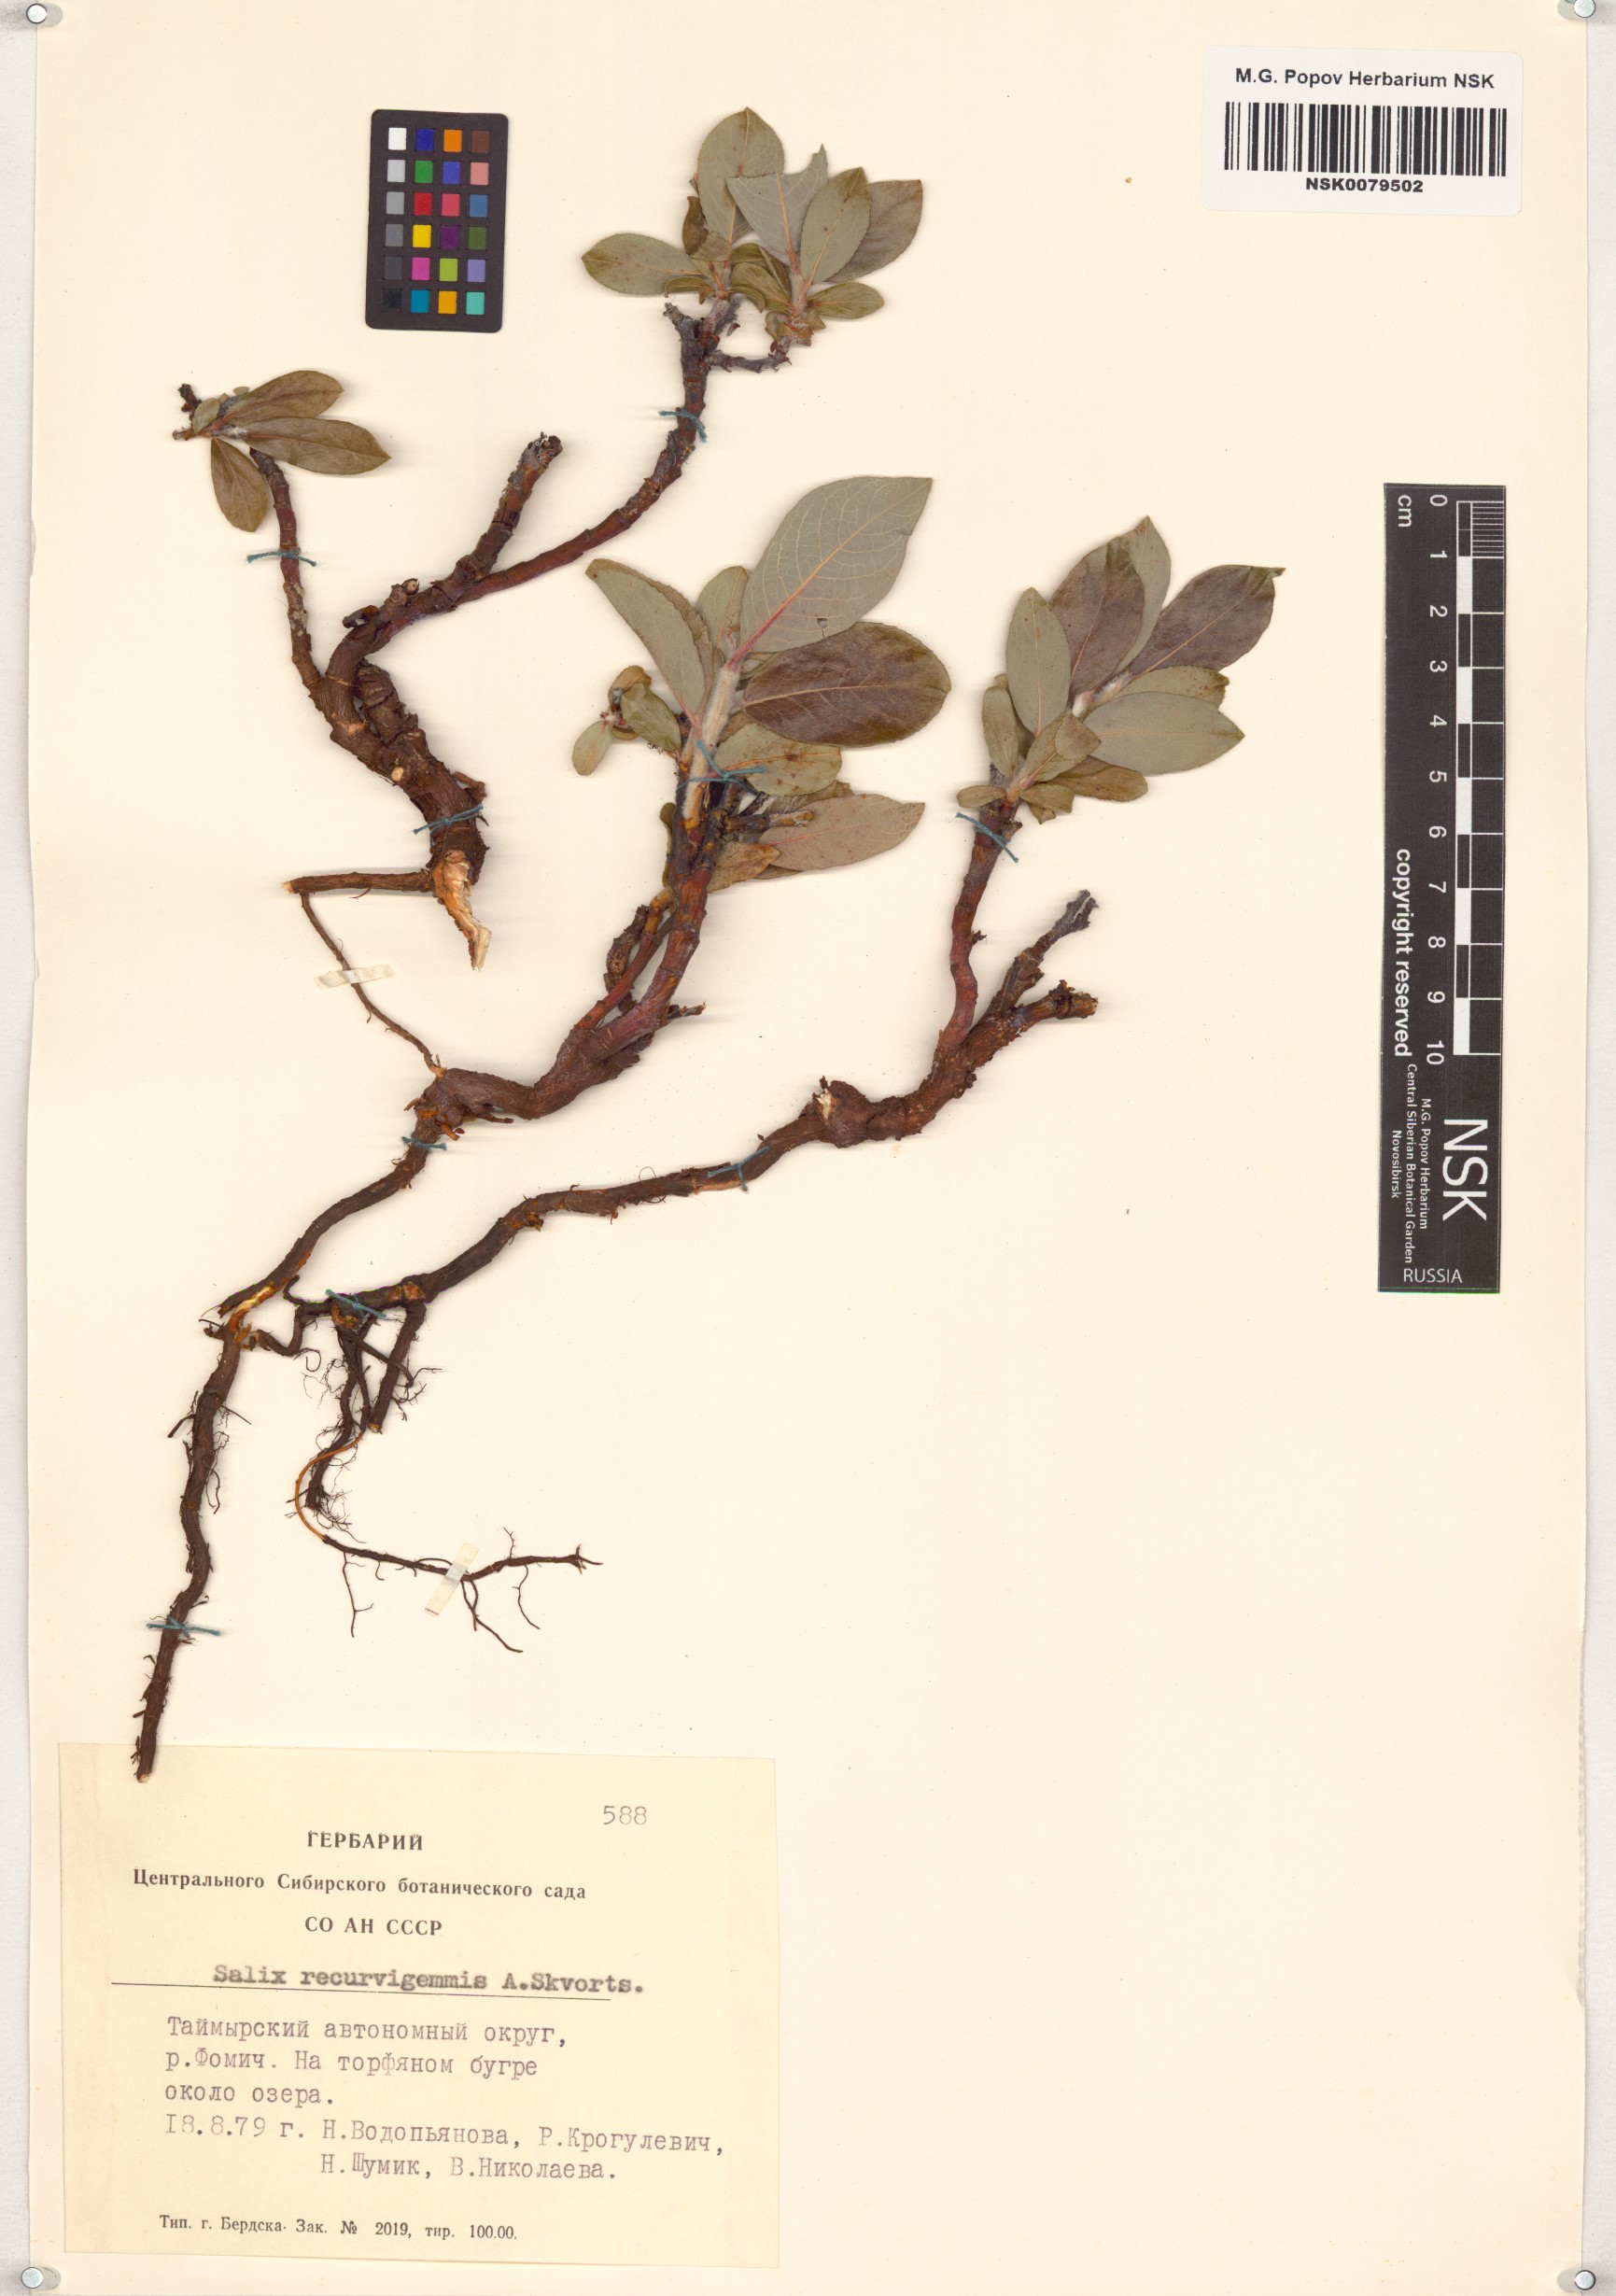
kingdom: Plantae
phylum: Tracheophyta
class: Magnoliopsida
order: Malpighiales
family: Salicaceae
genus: Salix
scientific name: Salix recurvigemmata
